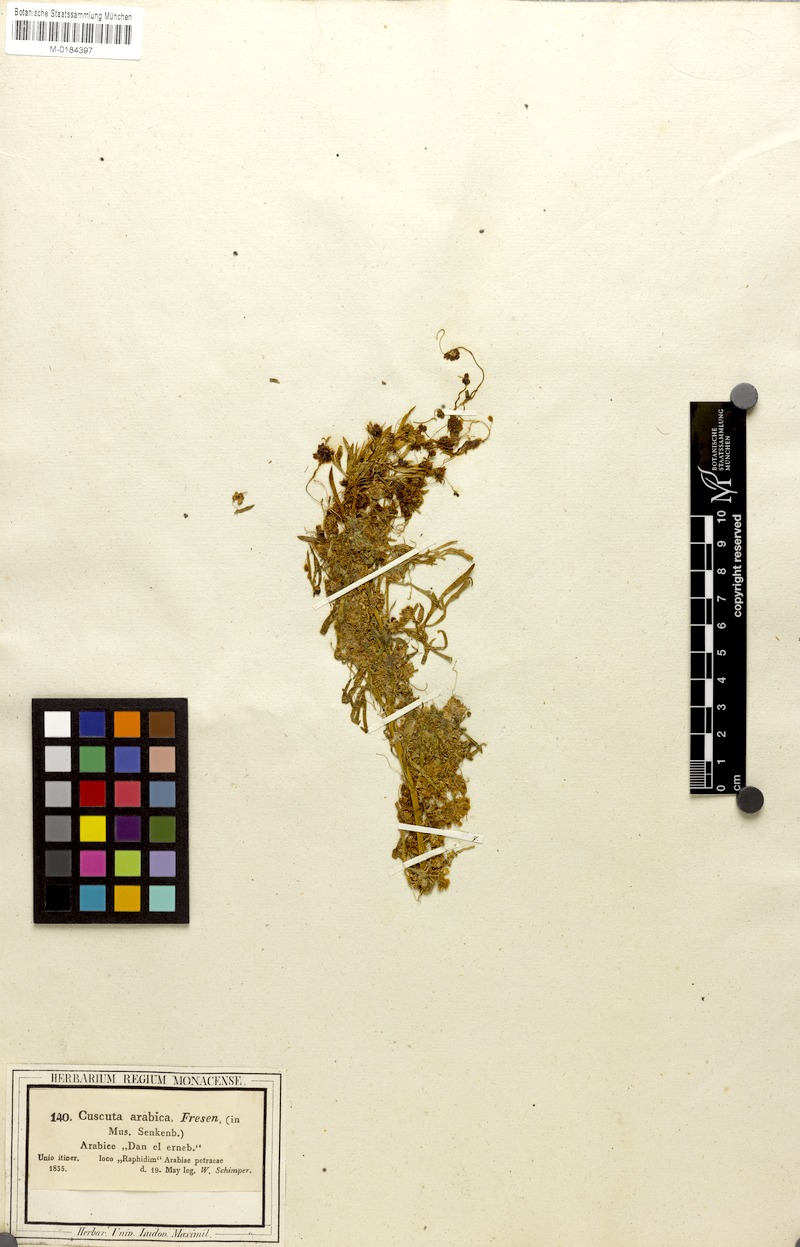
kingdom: Plantae
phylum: Tracheophyta
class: Magnoliopsida
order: Solanales
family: Convolvulaceae
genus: Cuscuta
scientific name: Cuscuta hyalina
